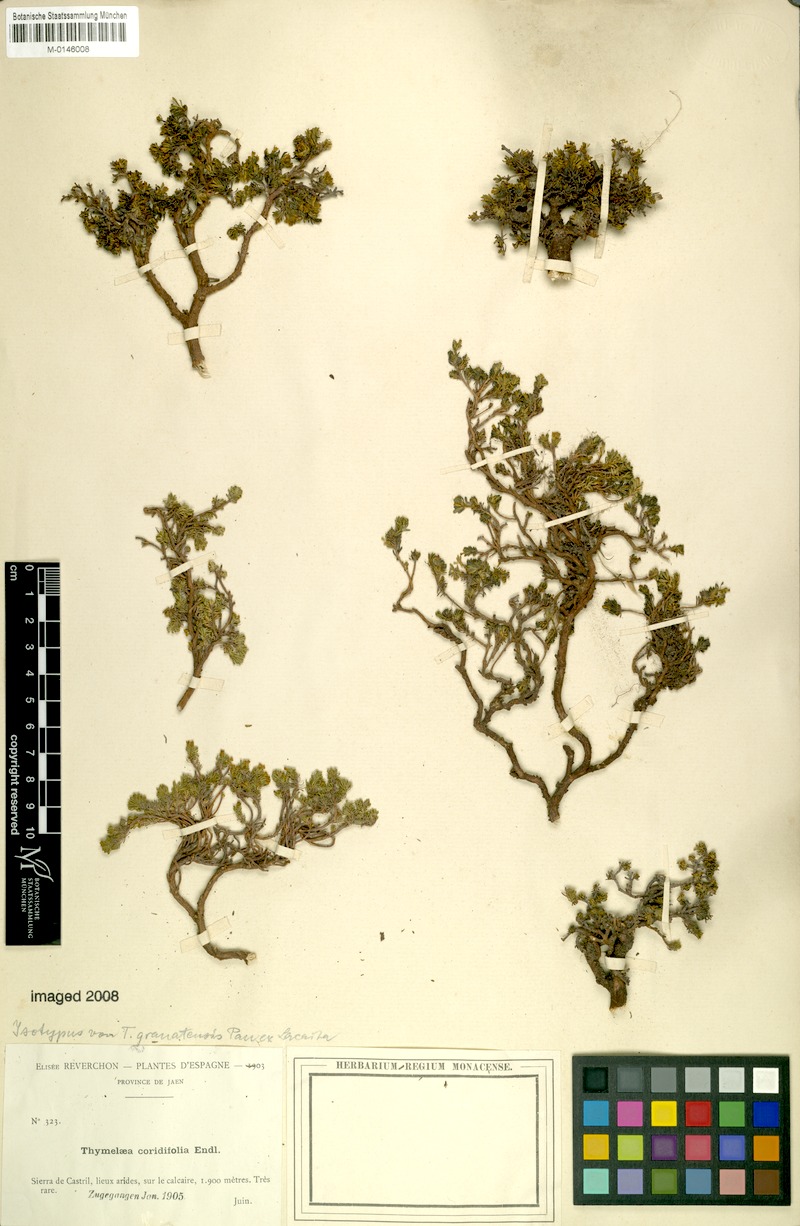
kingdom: Plantae
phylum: Tracheophyta
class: Magnoliopsida
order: Malvales
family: Thymelaeaceae
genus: Thymelaea
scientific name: Thymelaea granatensis
